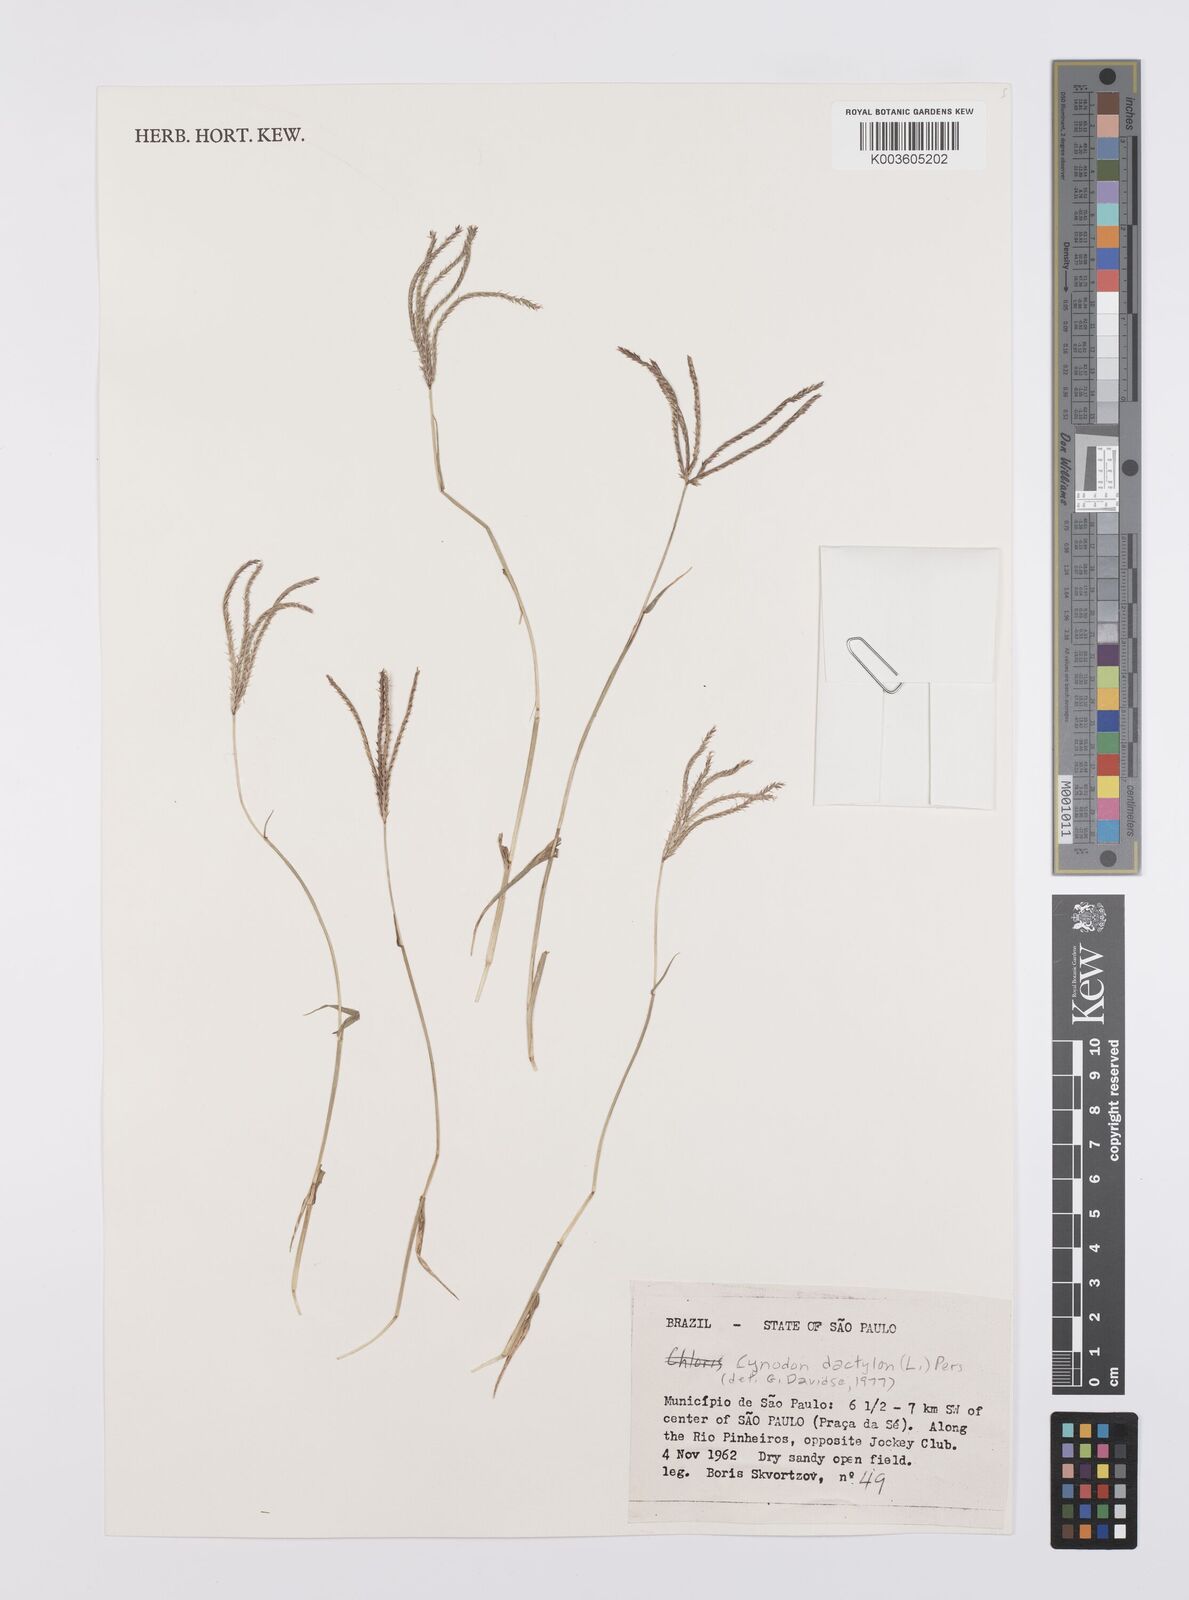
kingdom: Plantae
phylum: Tracheophyta
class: Liliopsida
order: Poales
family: Poaceae
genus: Cynodon
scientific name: Cynodon dactylon
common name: Bermuda grass
